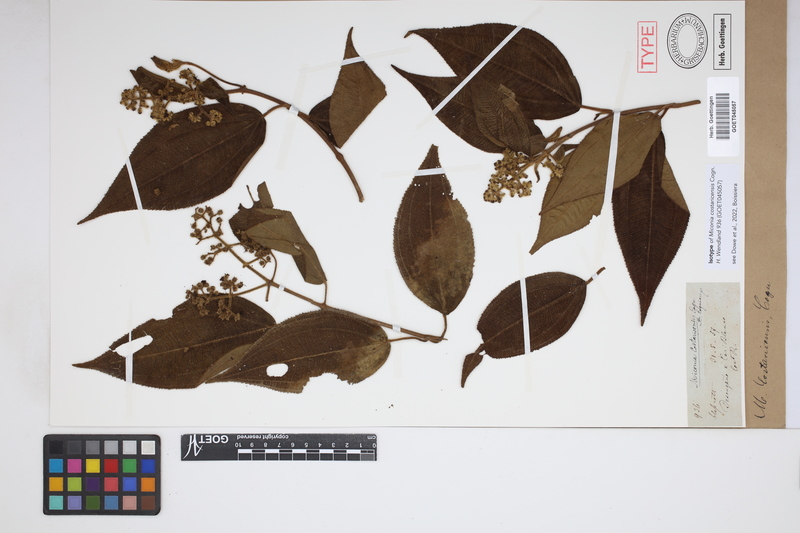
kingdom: Plantae
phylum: Tracheophyta
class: Magnoliopsida
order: Myrtales
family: Melastomataceae
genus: Miconia
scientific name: Miconia costaricensis
